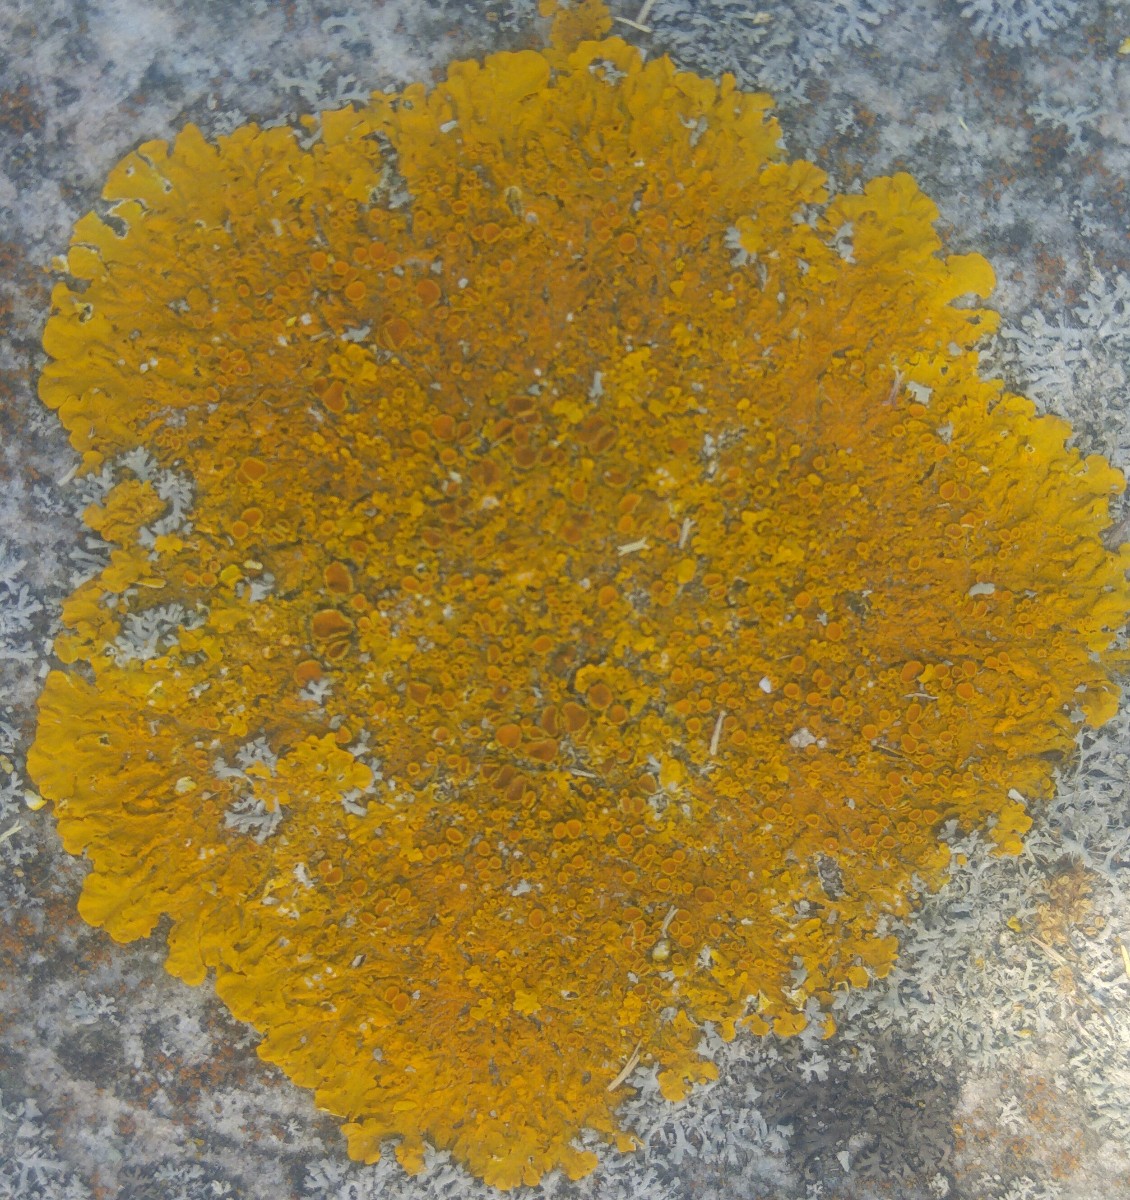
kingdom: Fungi
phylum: Ascomycota
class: Lecanoromycetes
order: Teloschistales
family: Teloschistaceae
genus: Xanthoria
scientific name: Xanthoria parietina
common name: almindelig væggelav
